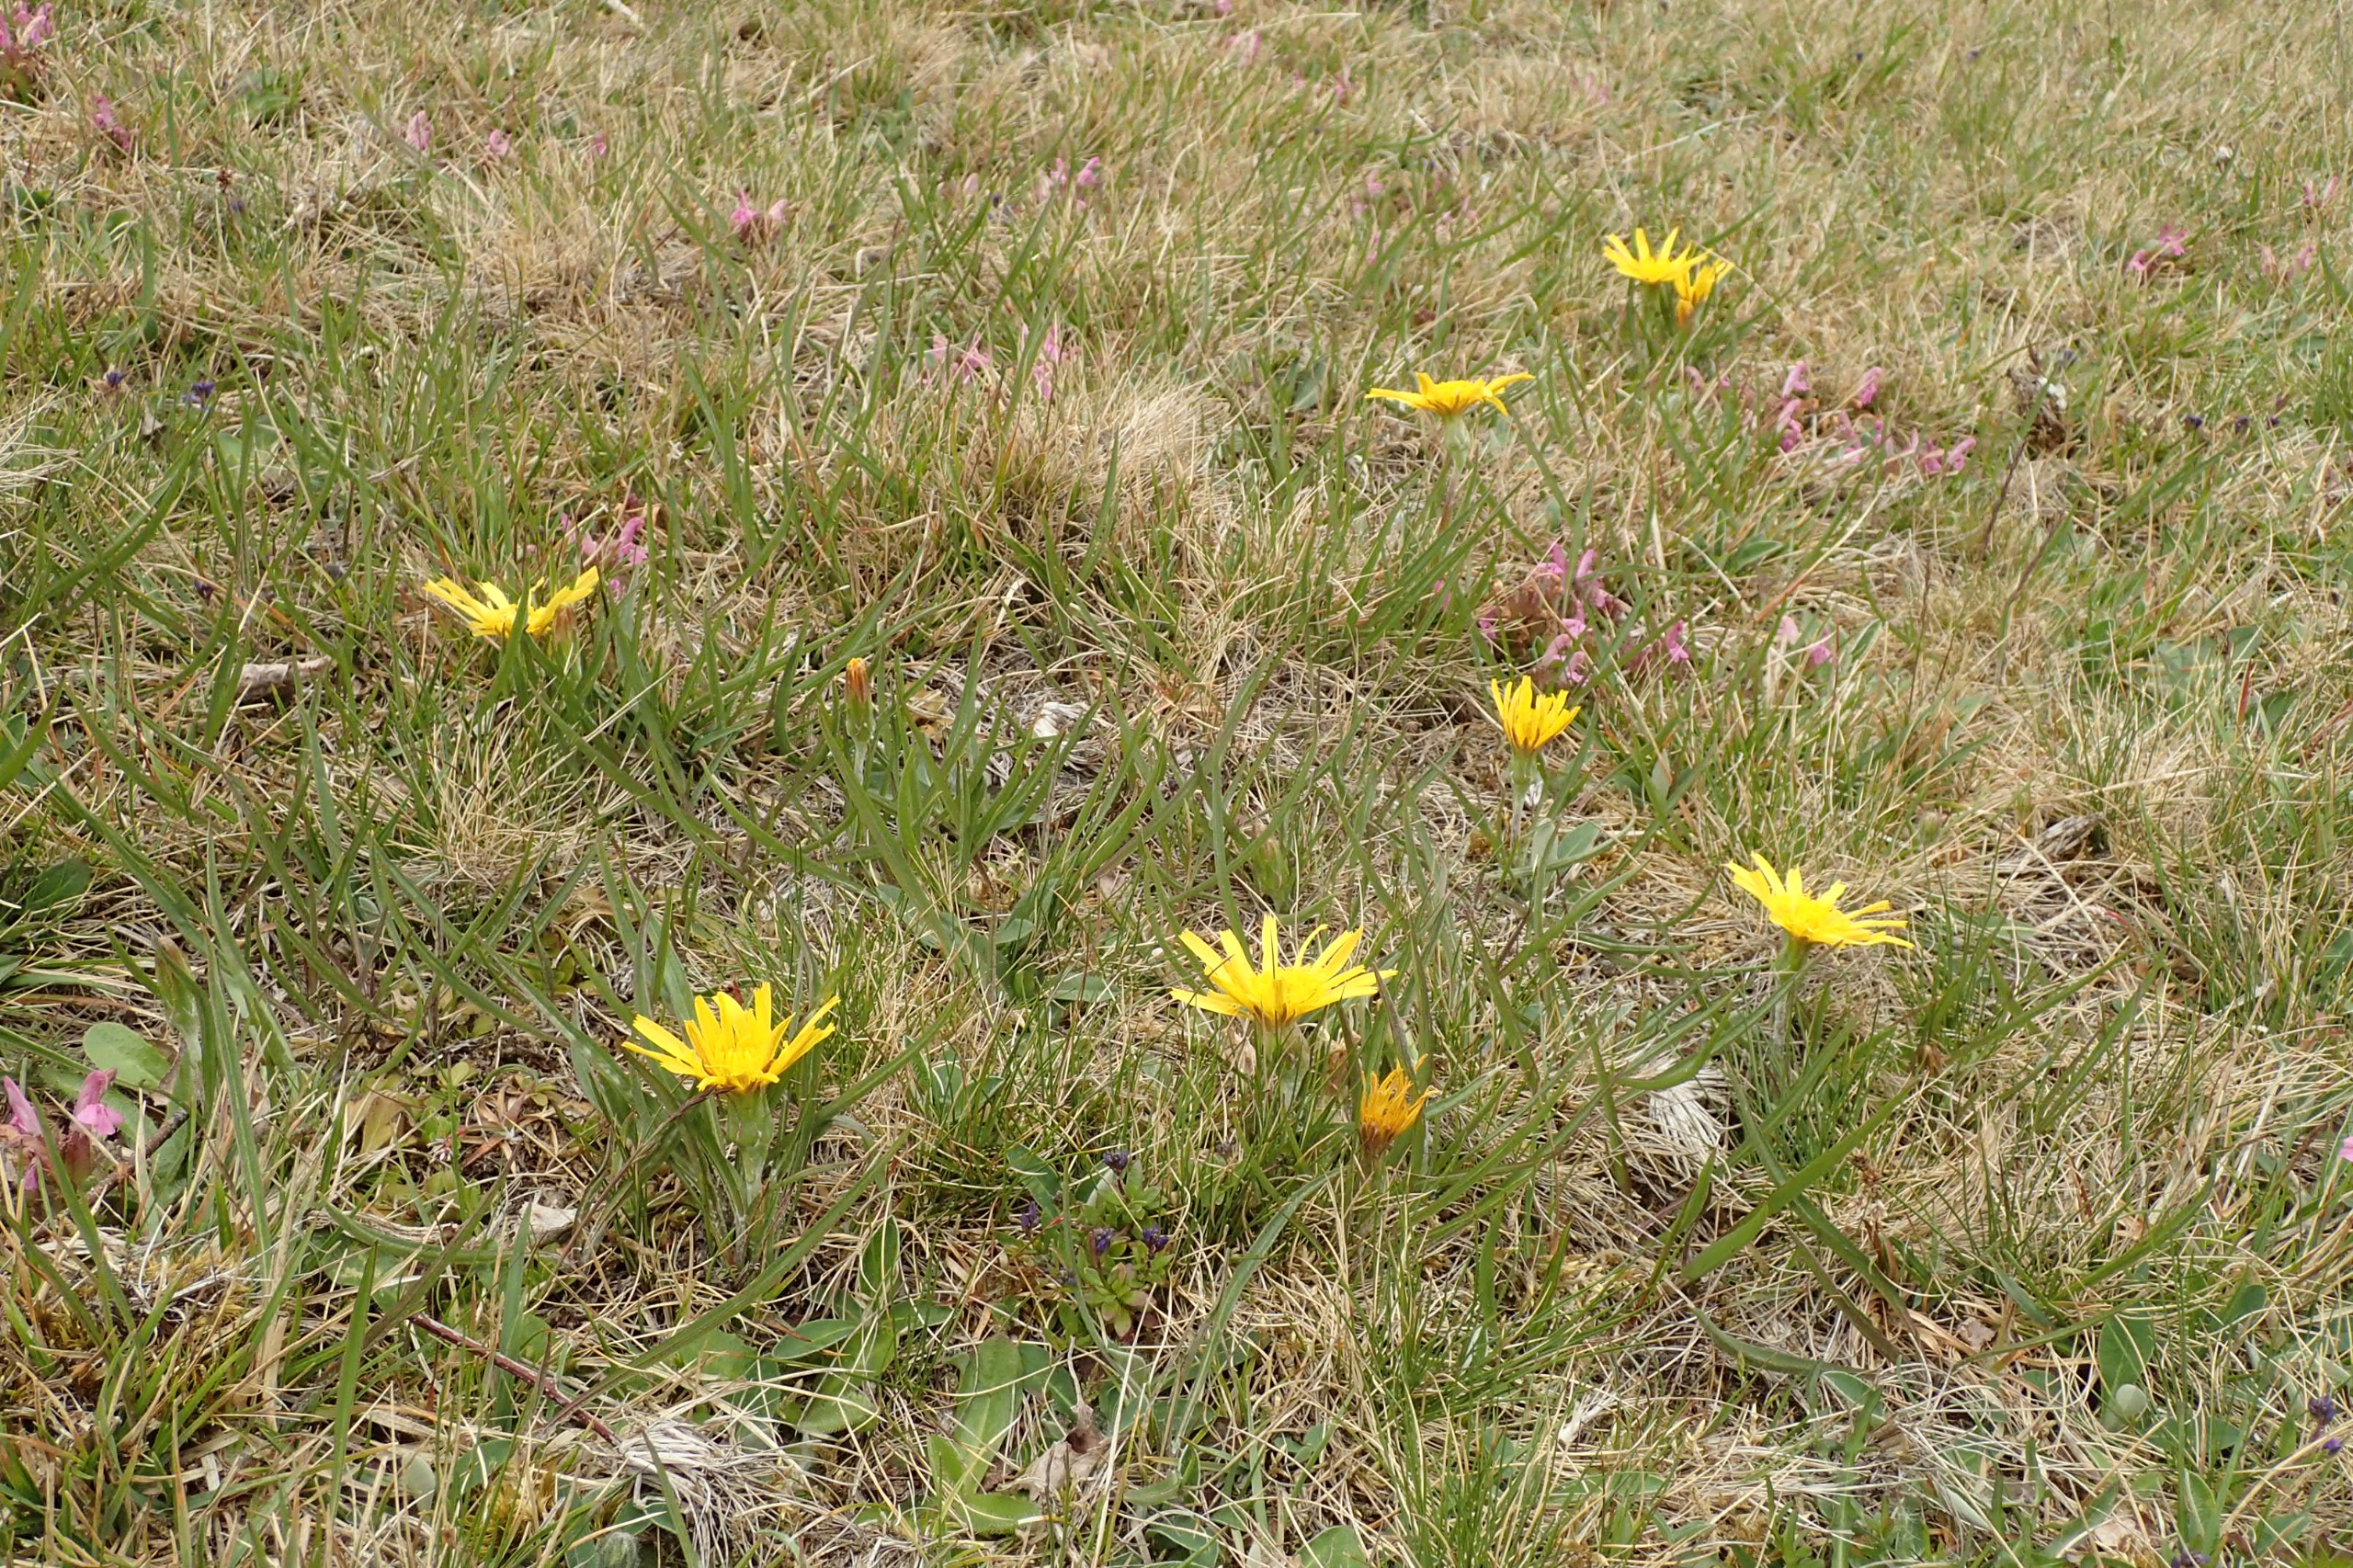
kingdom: Plantae
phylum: Tracheophyta
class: Magnoliopsida
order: Asterales
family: Asteraceae
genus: Scorzonera
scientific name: Scorzonera humilis
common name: Lav skorsoner
